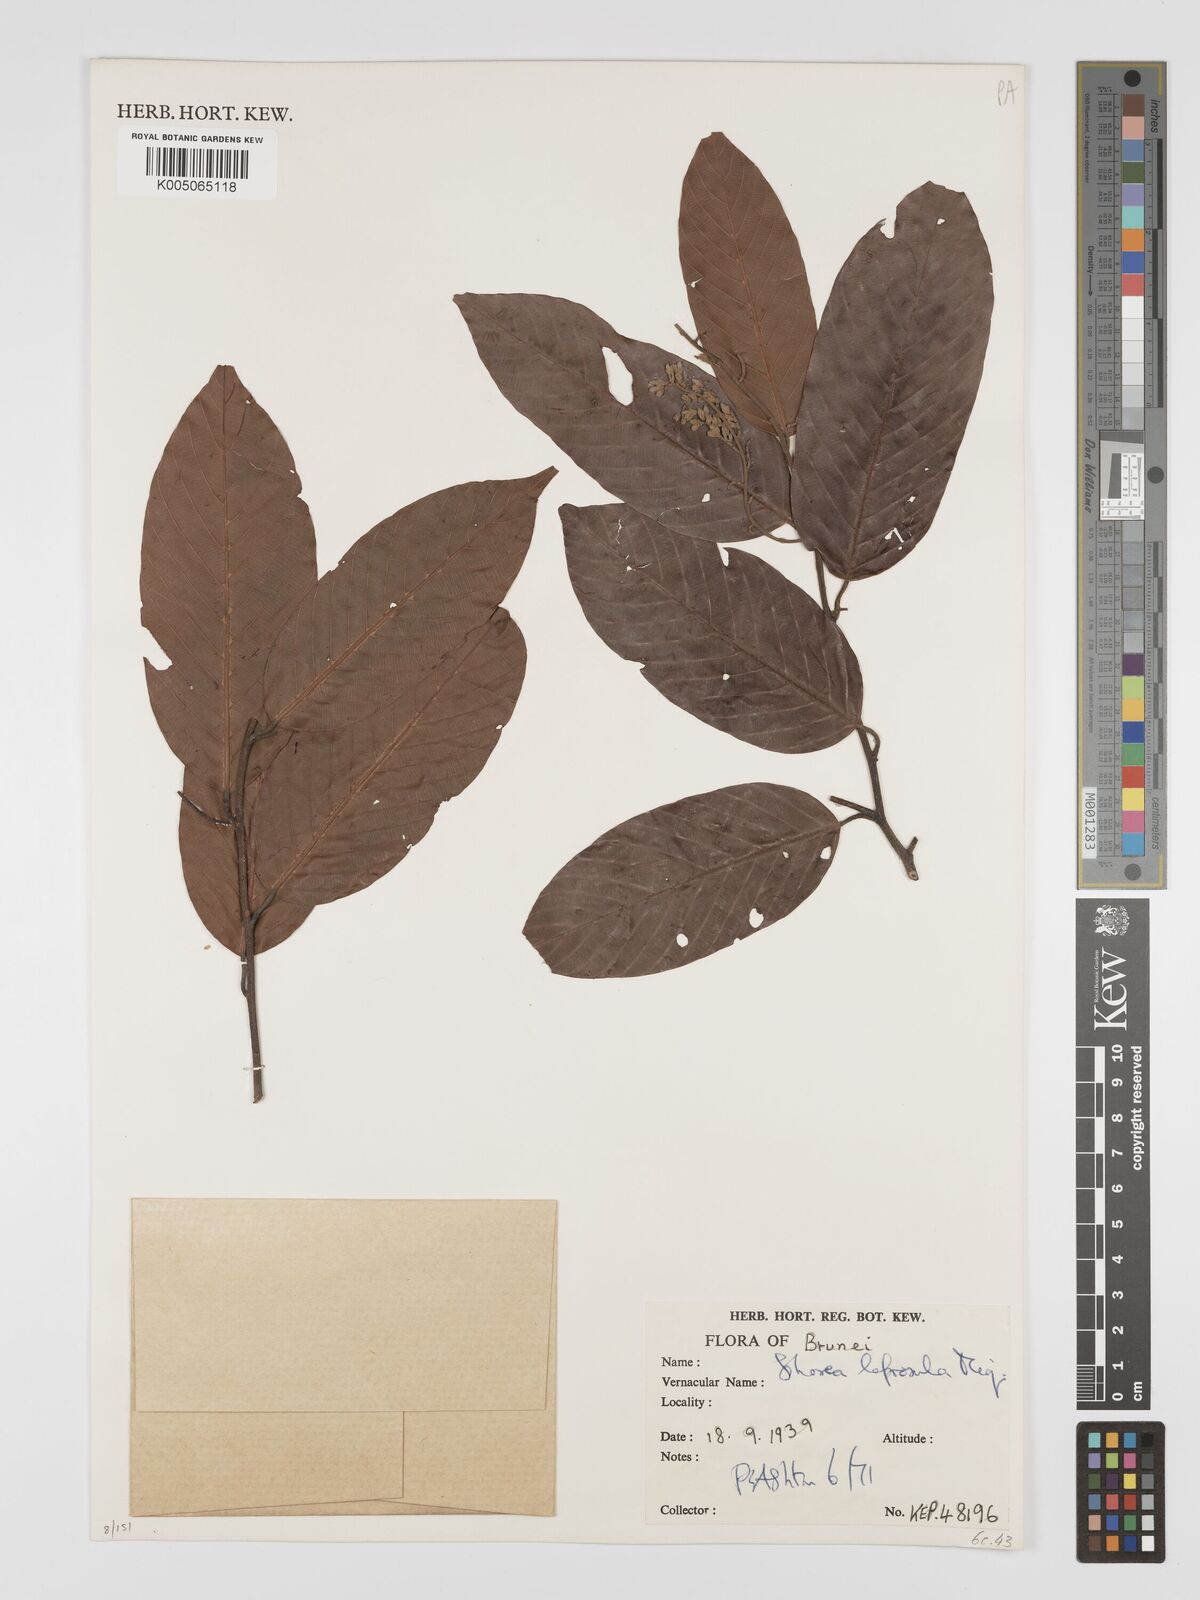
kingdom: Plantae
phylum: Tracheophyta
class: Magnoliopsida
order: Malvales
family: Dipterocarpaceae
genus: Shorea
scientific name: Shorea leprosula
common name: Light red meranti
